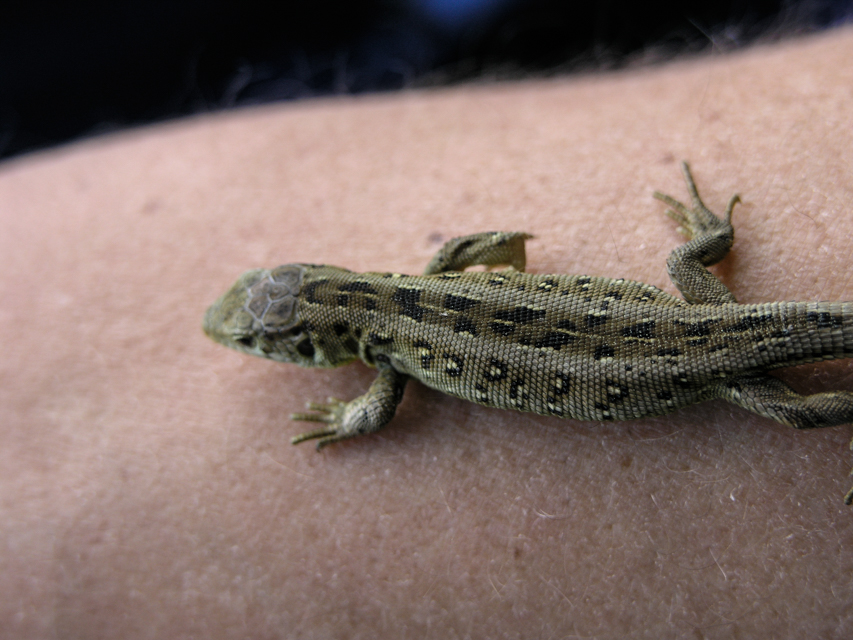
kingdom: Animalia
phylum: Chordata
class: Squamata
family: Lacertidae
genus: Lacerta
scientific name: Lacerta agilis
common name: Sand lizard
